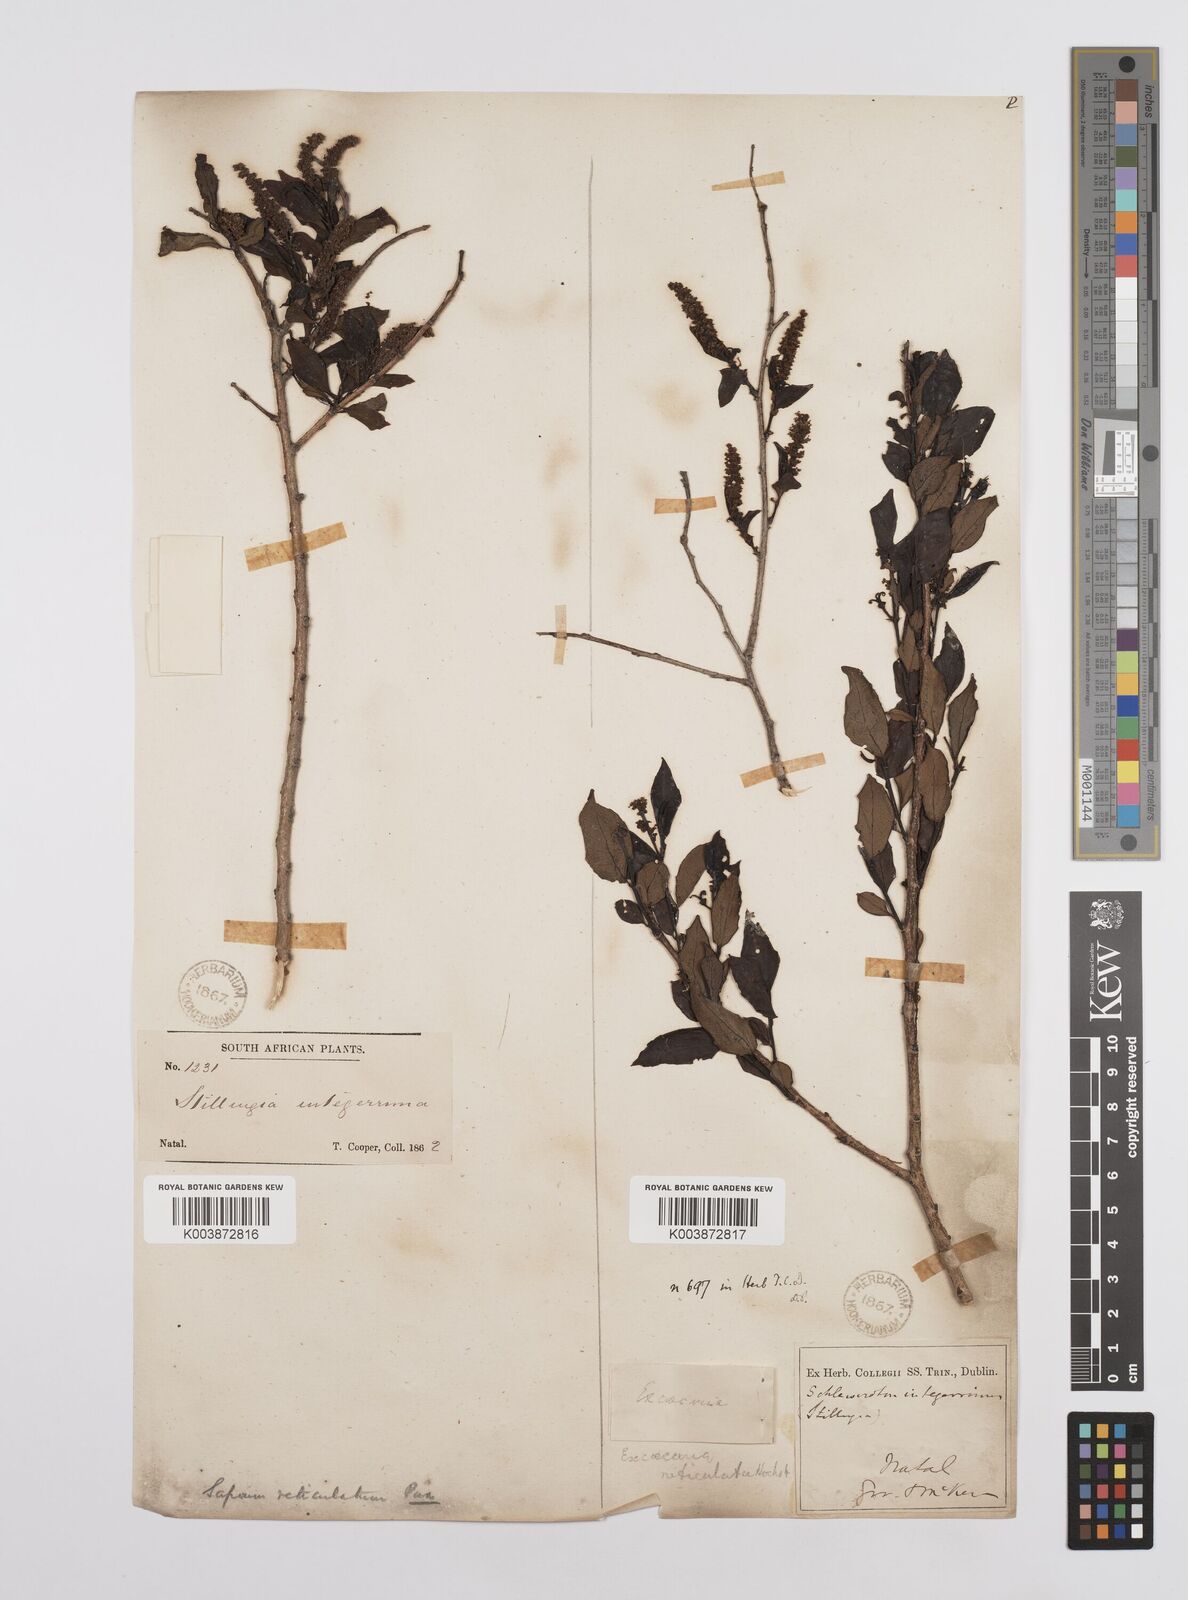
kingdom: Plantae
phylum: Tracheophyta
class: Magnoliopsida
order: Malpighiales
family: Euphorbiaceae
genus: Sclerocroton
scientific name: Sclerocroton integerrimus
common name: Duiker berry
